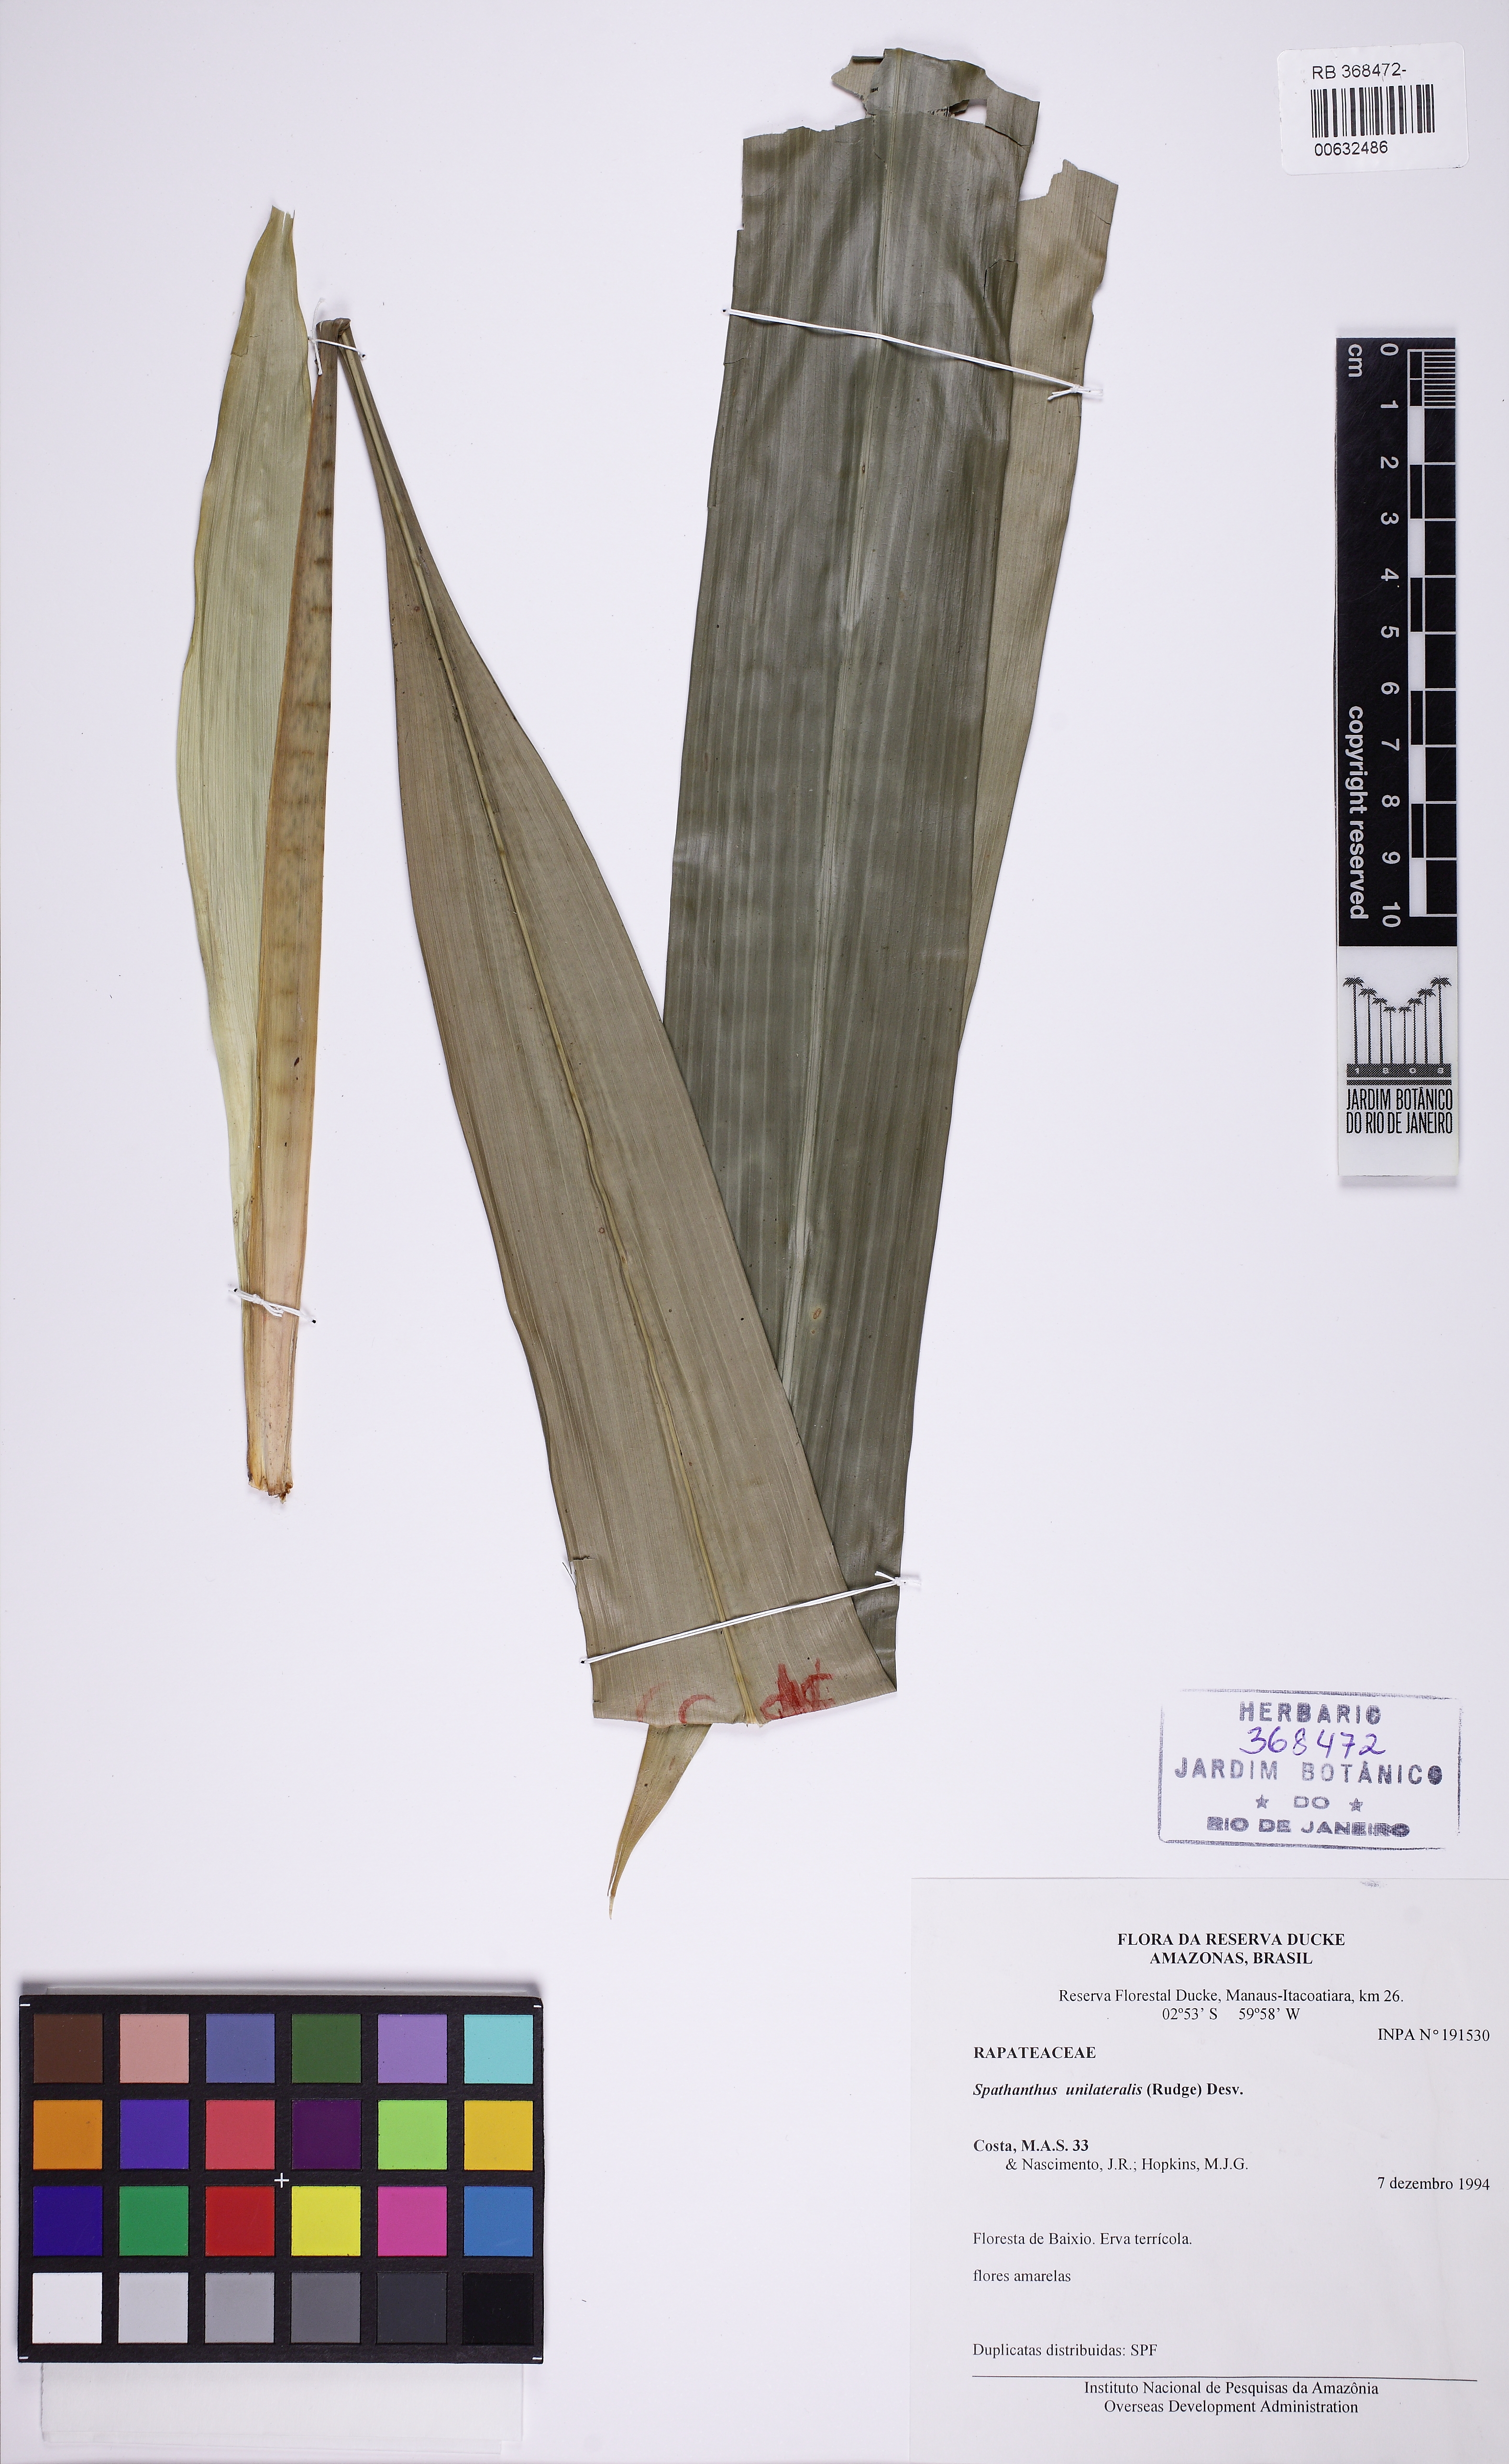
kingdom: Plantae
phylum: Tracheophyta
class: Liliopsida
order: Poales
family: Rapateaceae
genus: Spathanthus
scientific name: Spathanthus unilateralis
